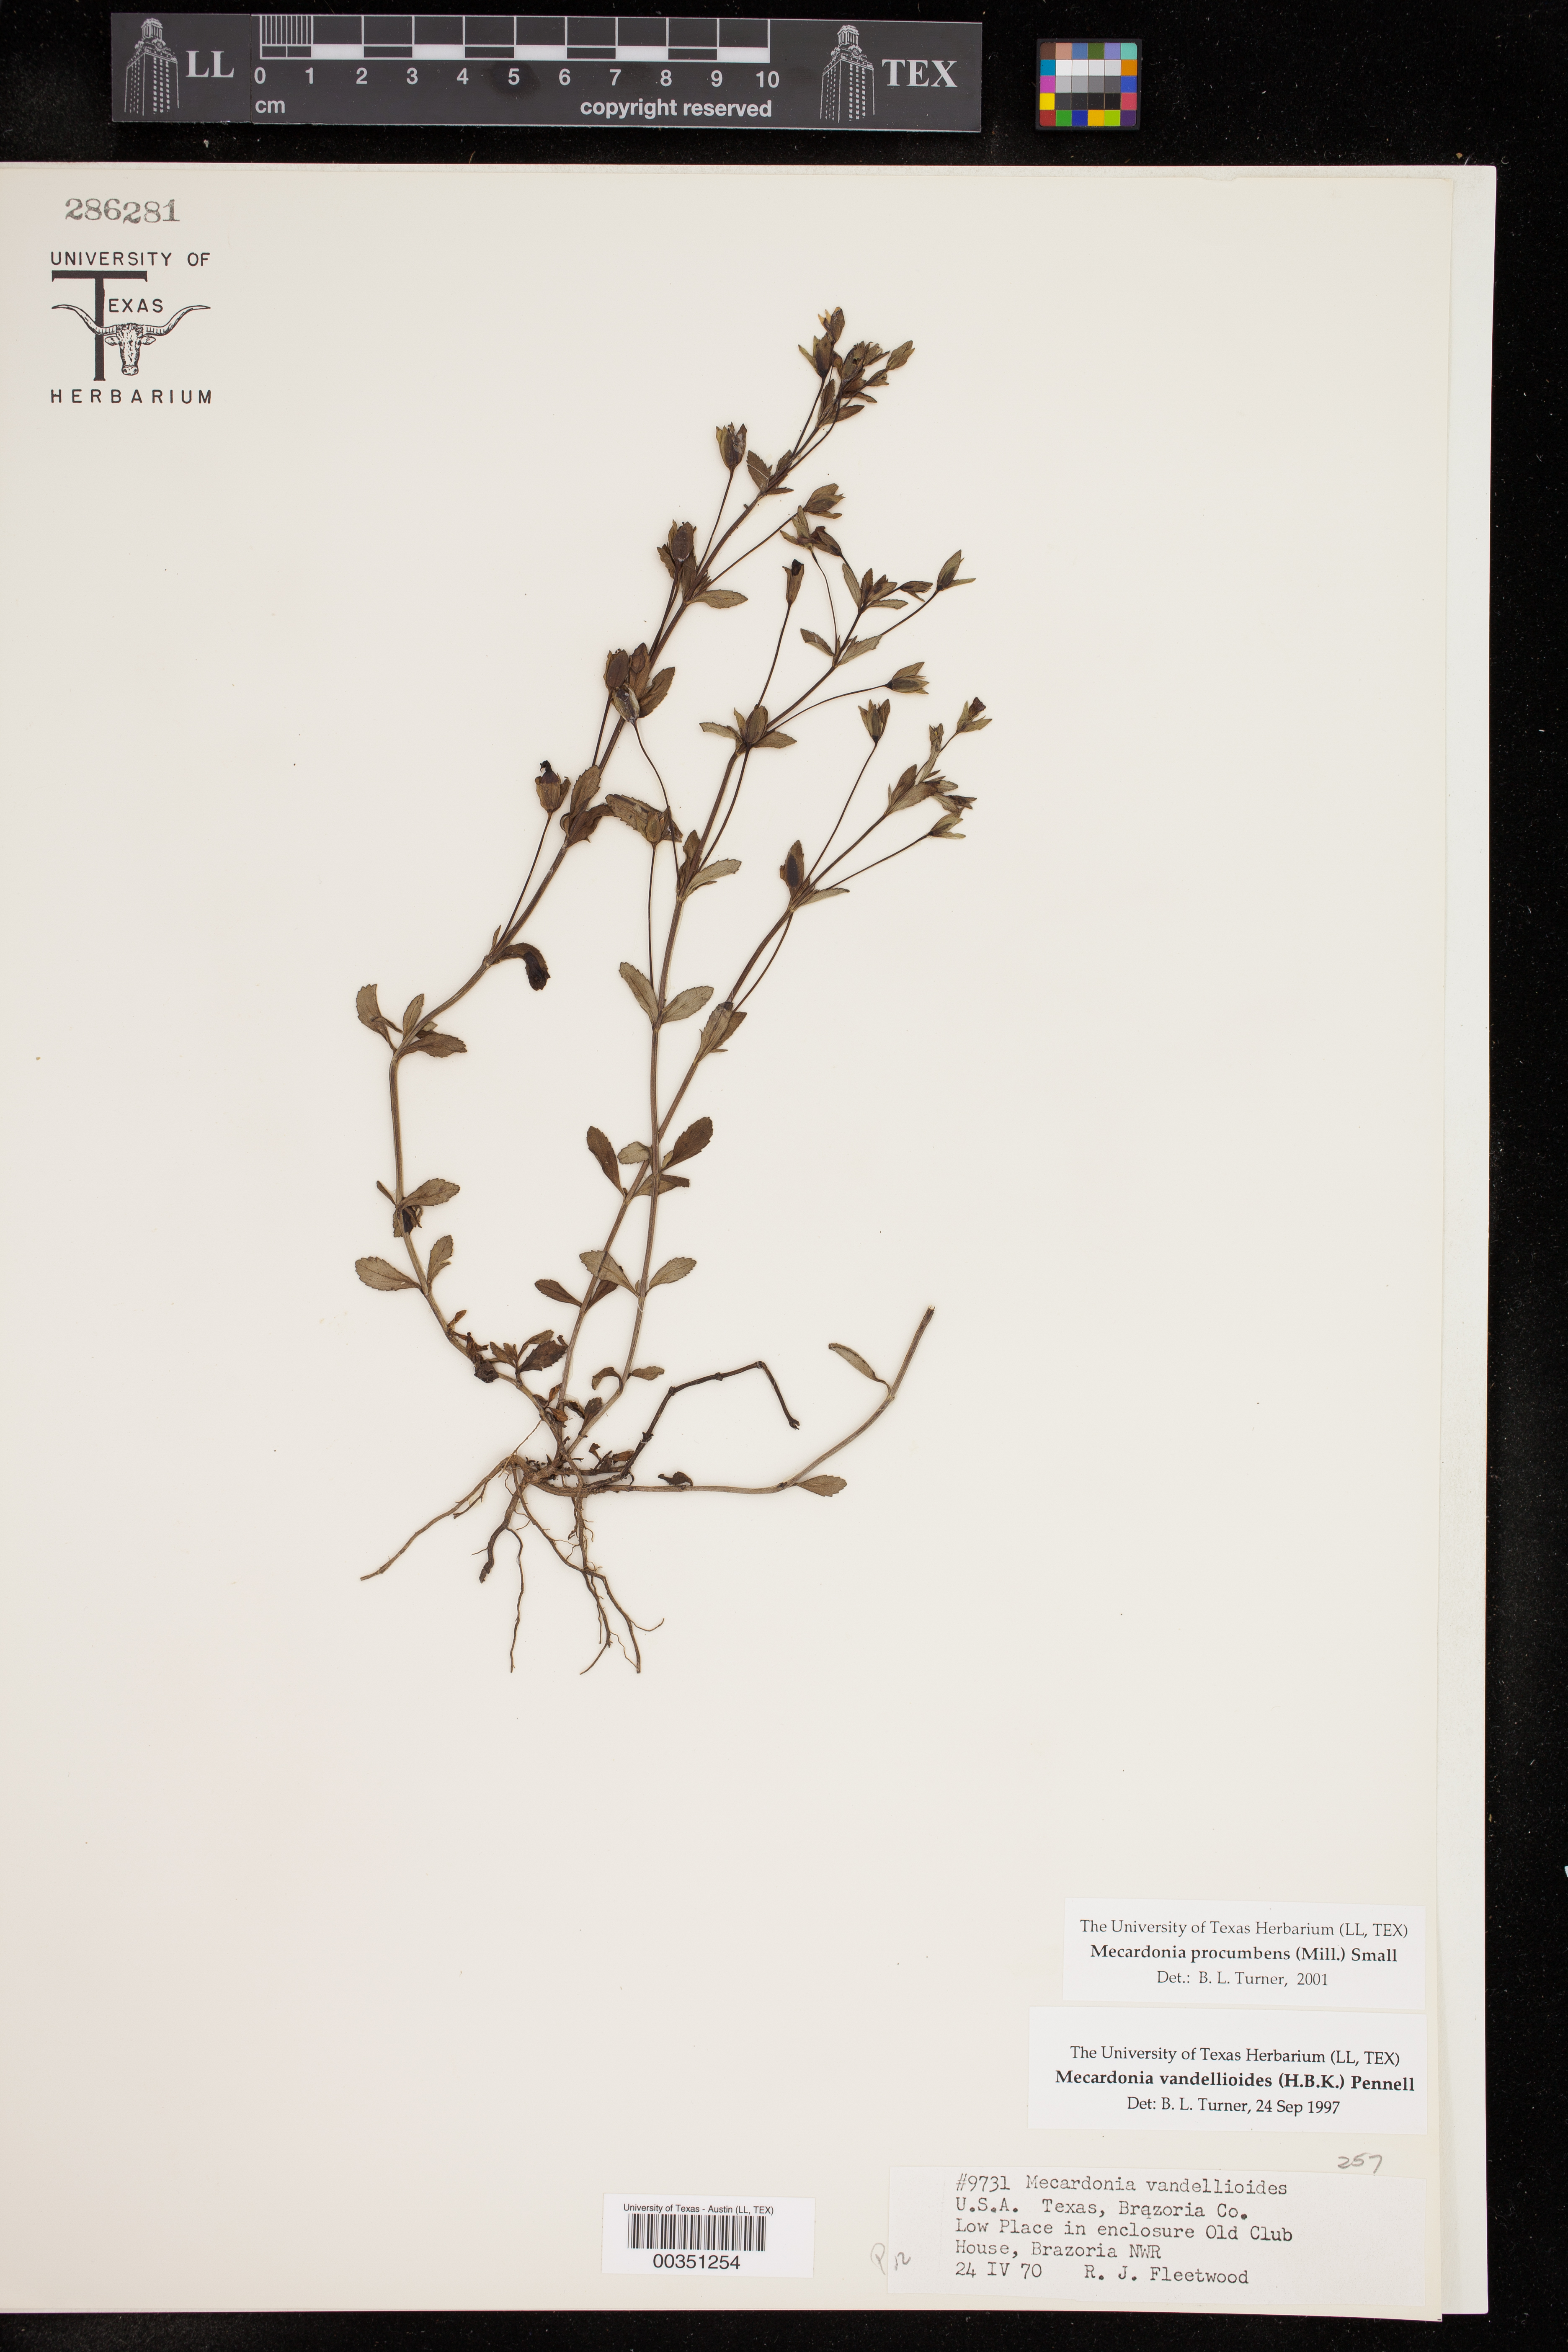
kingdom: Plantae
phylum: Tracheophyta
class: Magnoliopsida
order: Lamiales
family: Plantaginaceae
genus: Mecardonia
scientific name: Mecardonia procumbens
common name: Baby jump-up
